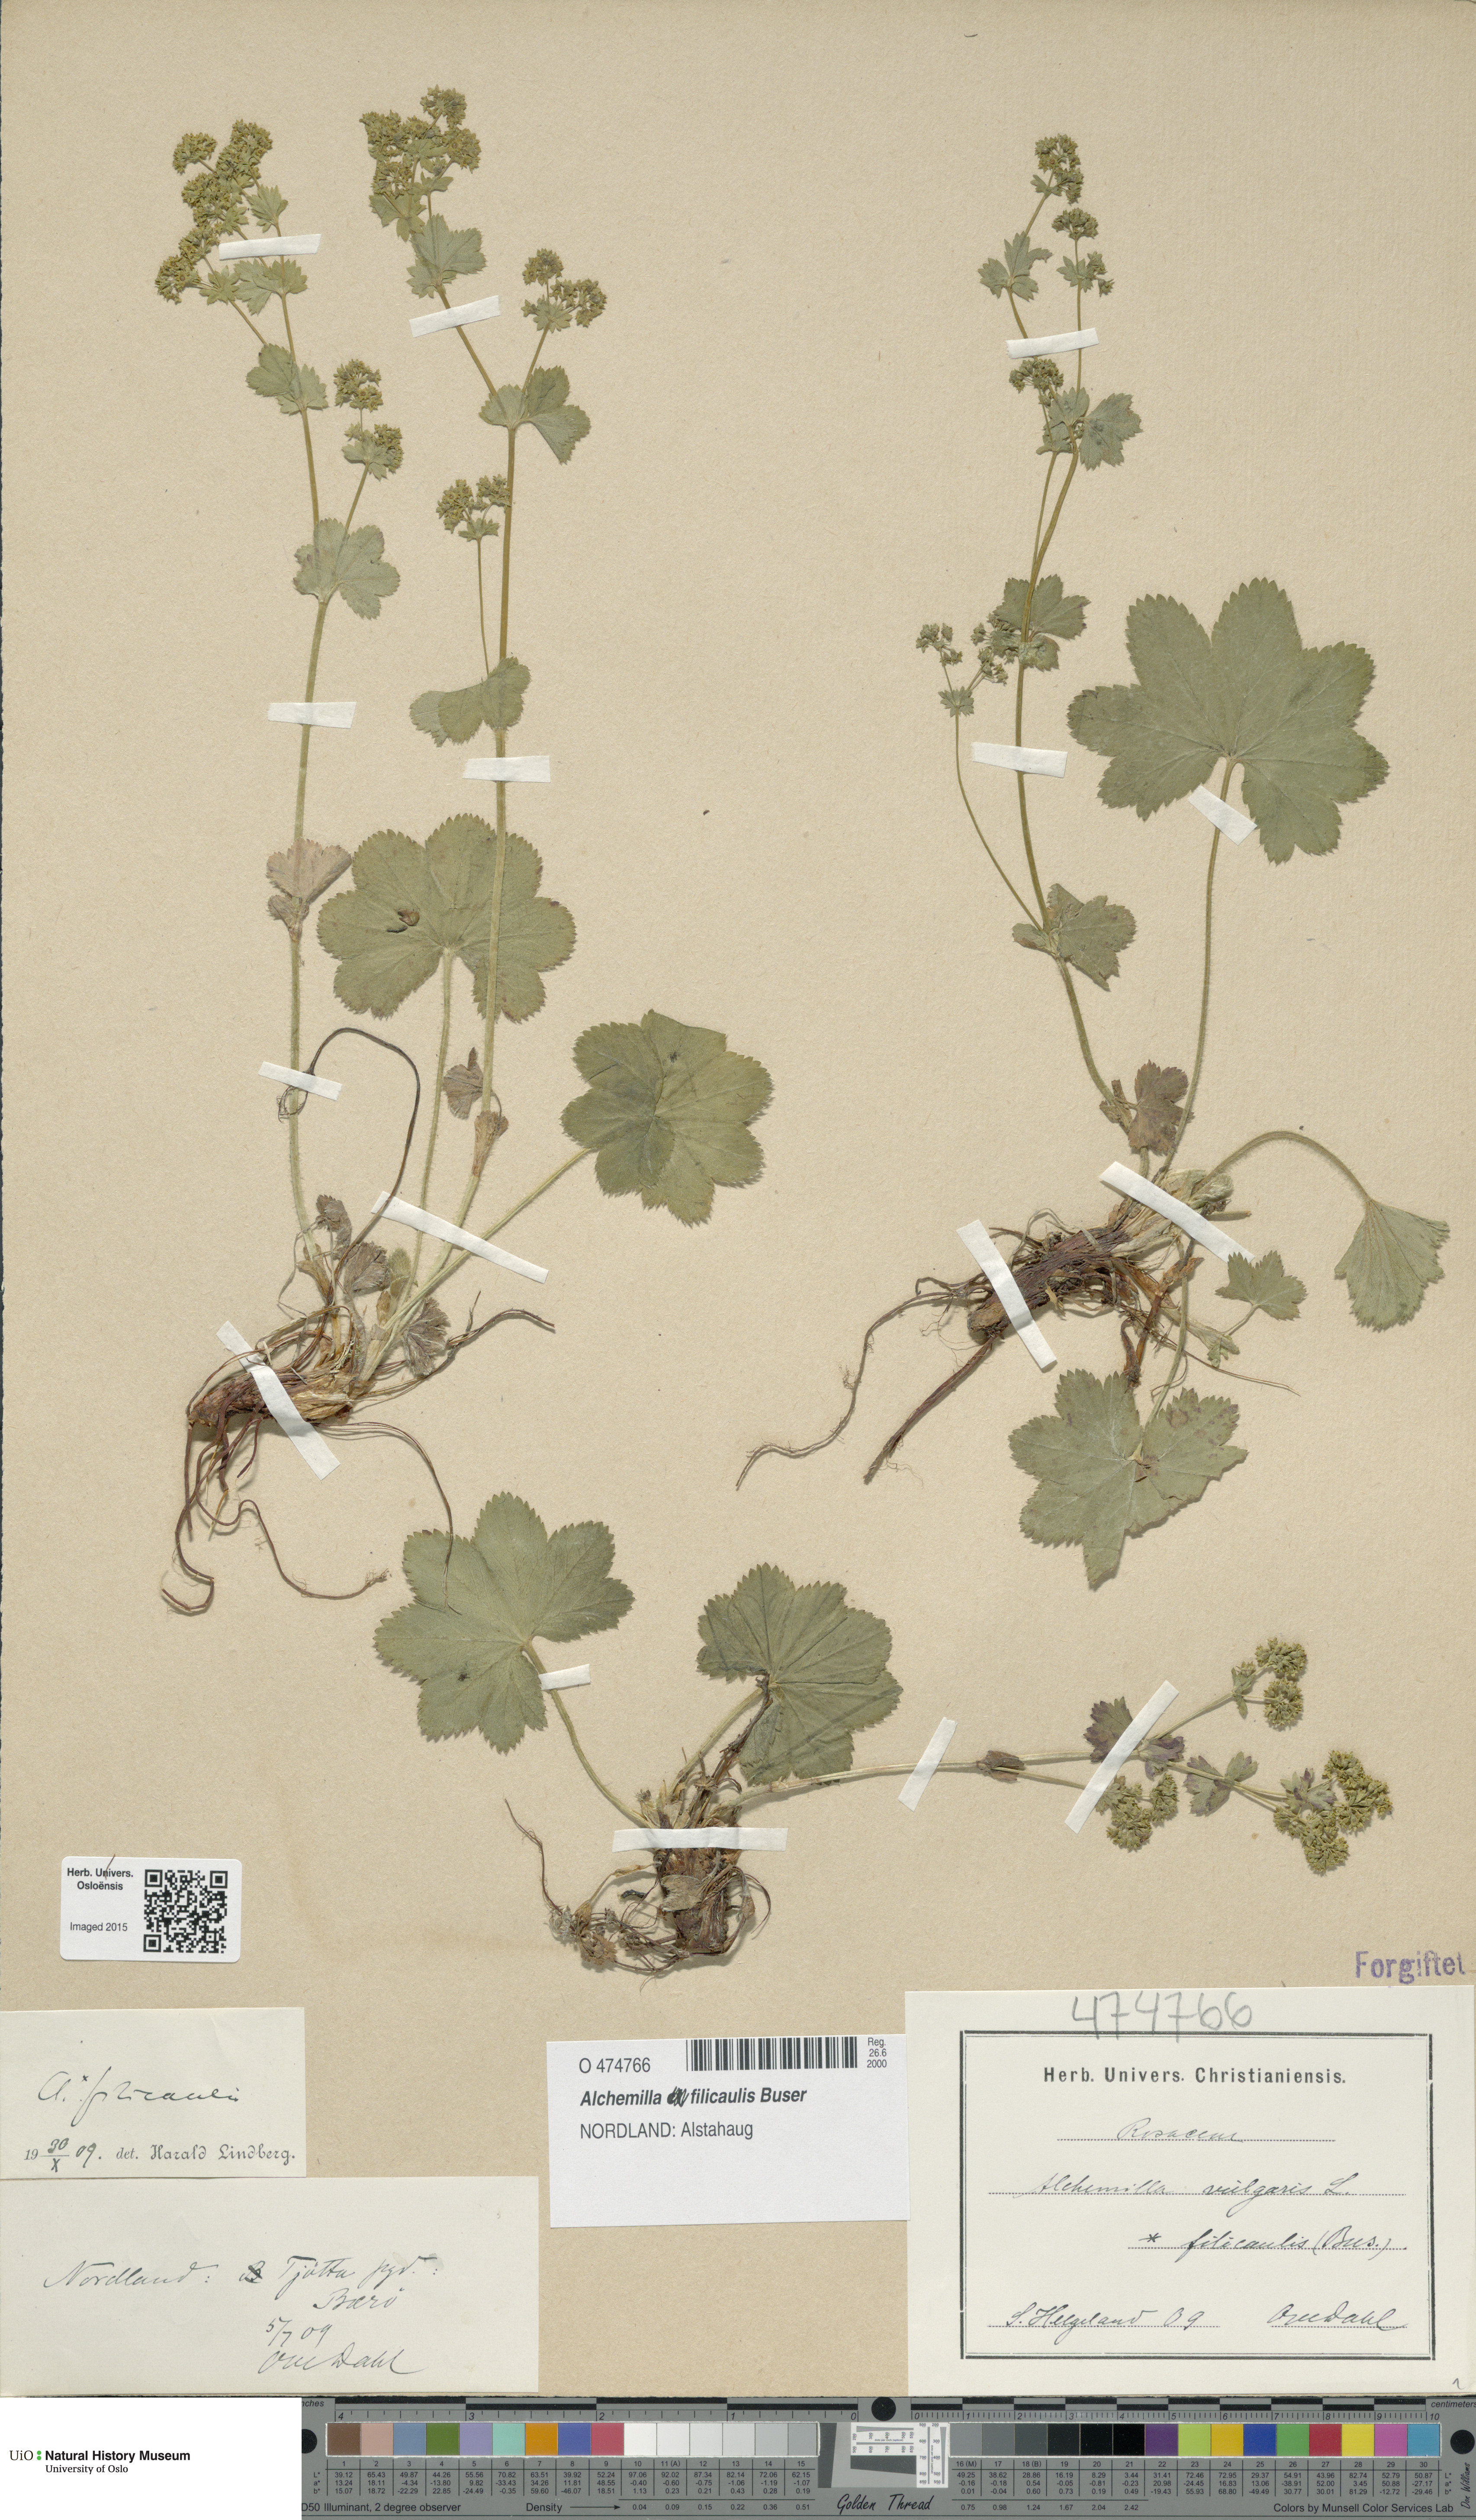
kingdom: Plantae
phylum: Tracheophyta
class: Magnoliopsida
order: Rosales
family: Rosaceae
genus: Alchemilla
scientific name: Alchemilla filicaulis
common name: Hairy lady's-mantle
